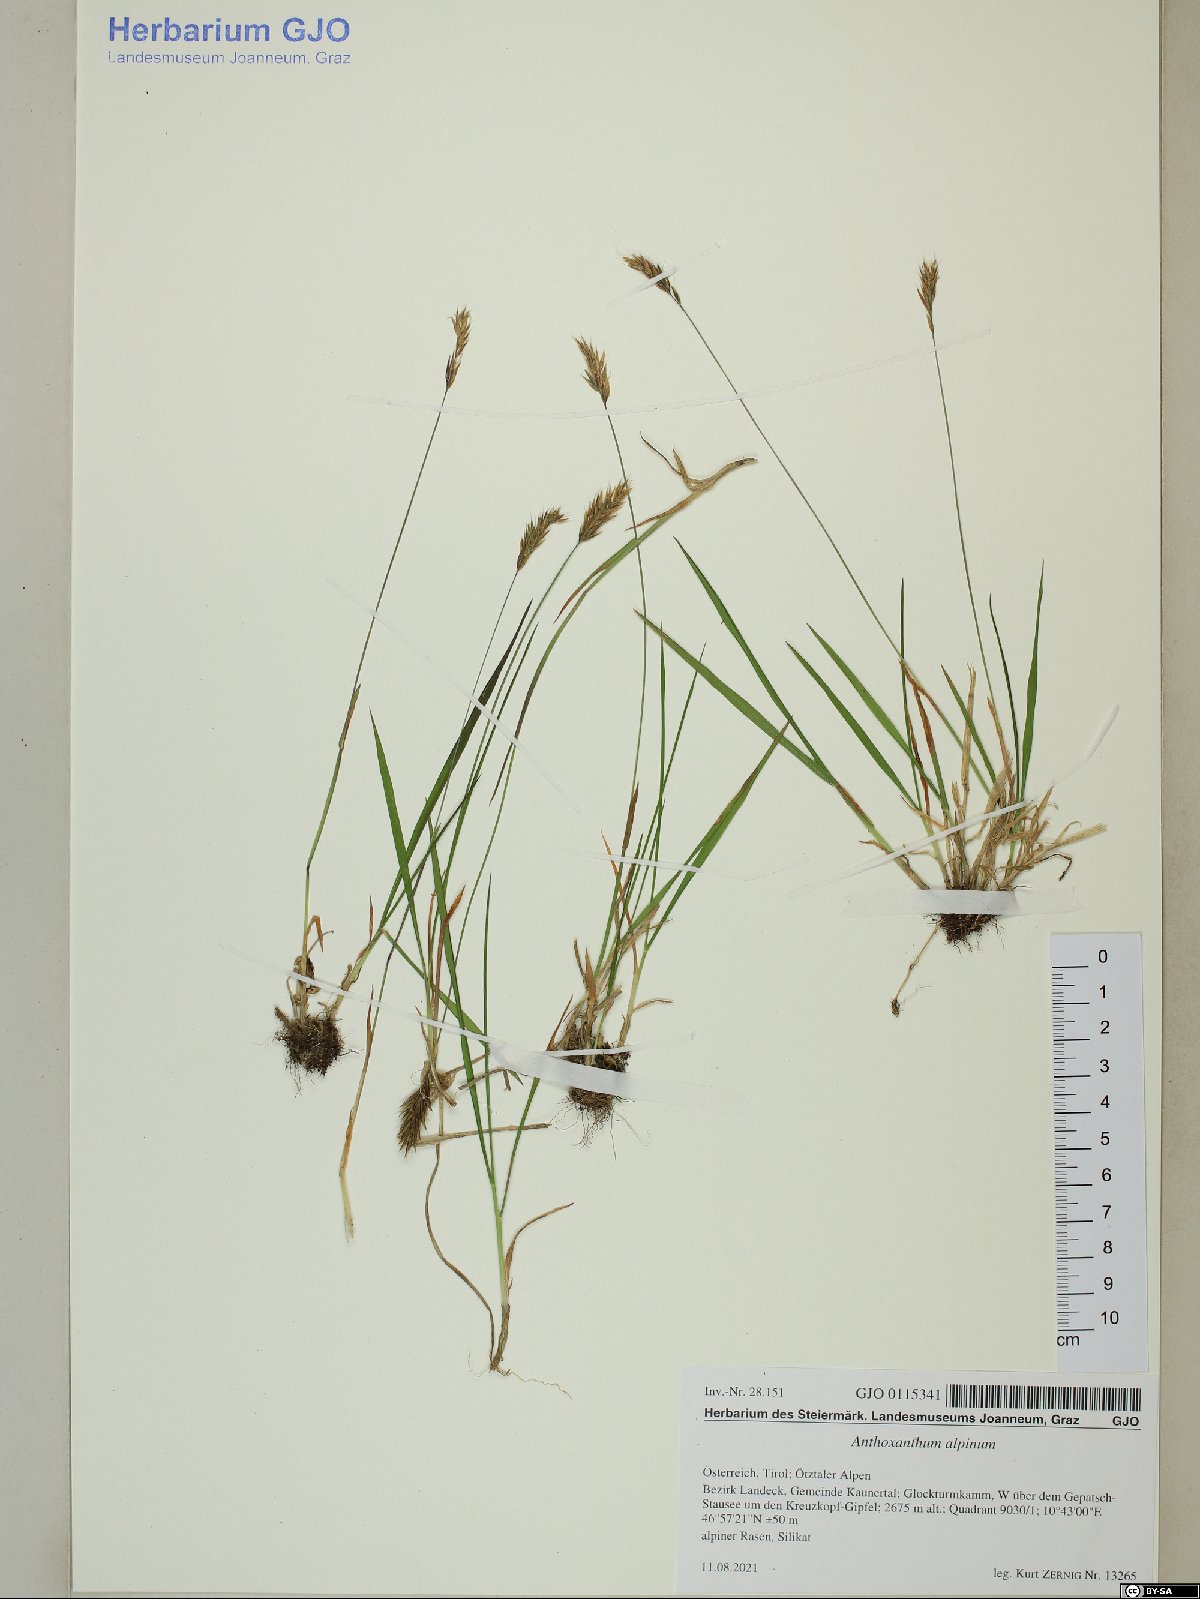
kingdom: Plantae
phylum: Tracheophyta
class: Liliopsida
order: Poales
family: Poaceae
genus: Anthoxanthum
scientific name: Anthoxanthum nipponicum
